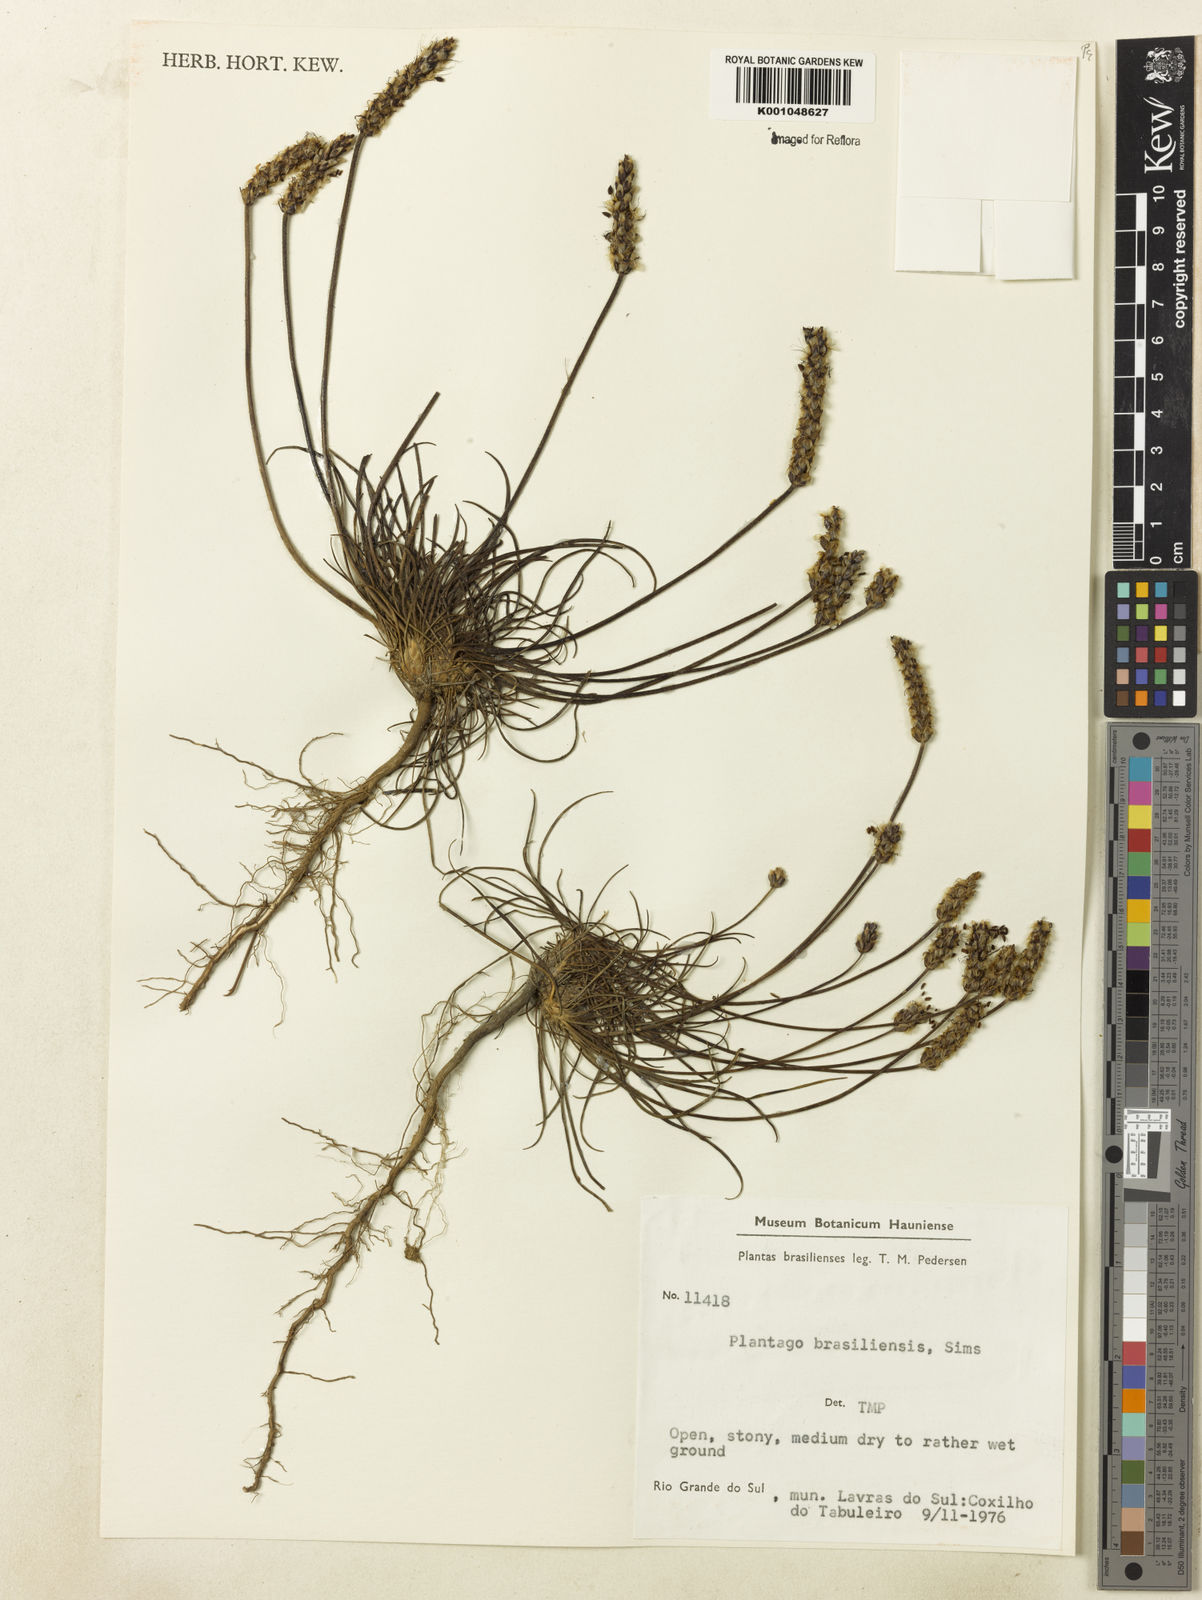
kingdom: Plantae
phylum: Tracheophyta
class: Magnoliopsida
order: Lamiales
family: Plantaginaceae
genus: Plantago
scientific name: Plantago brasiliensis
